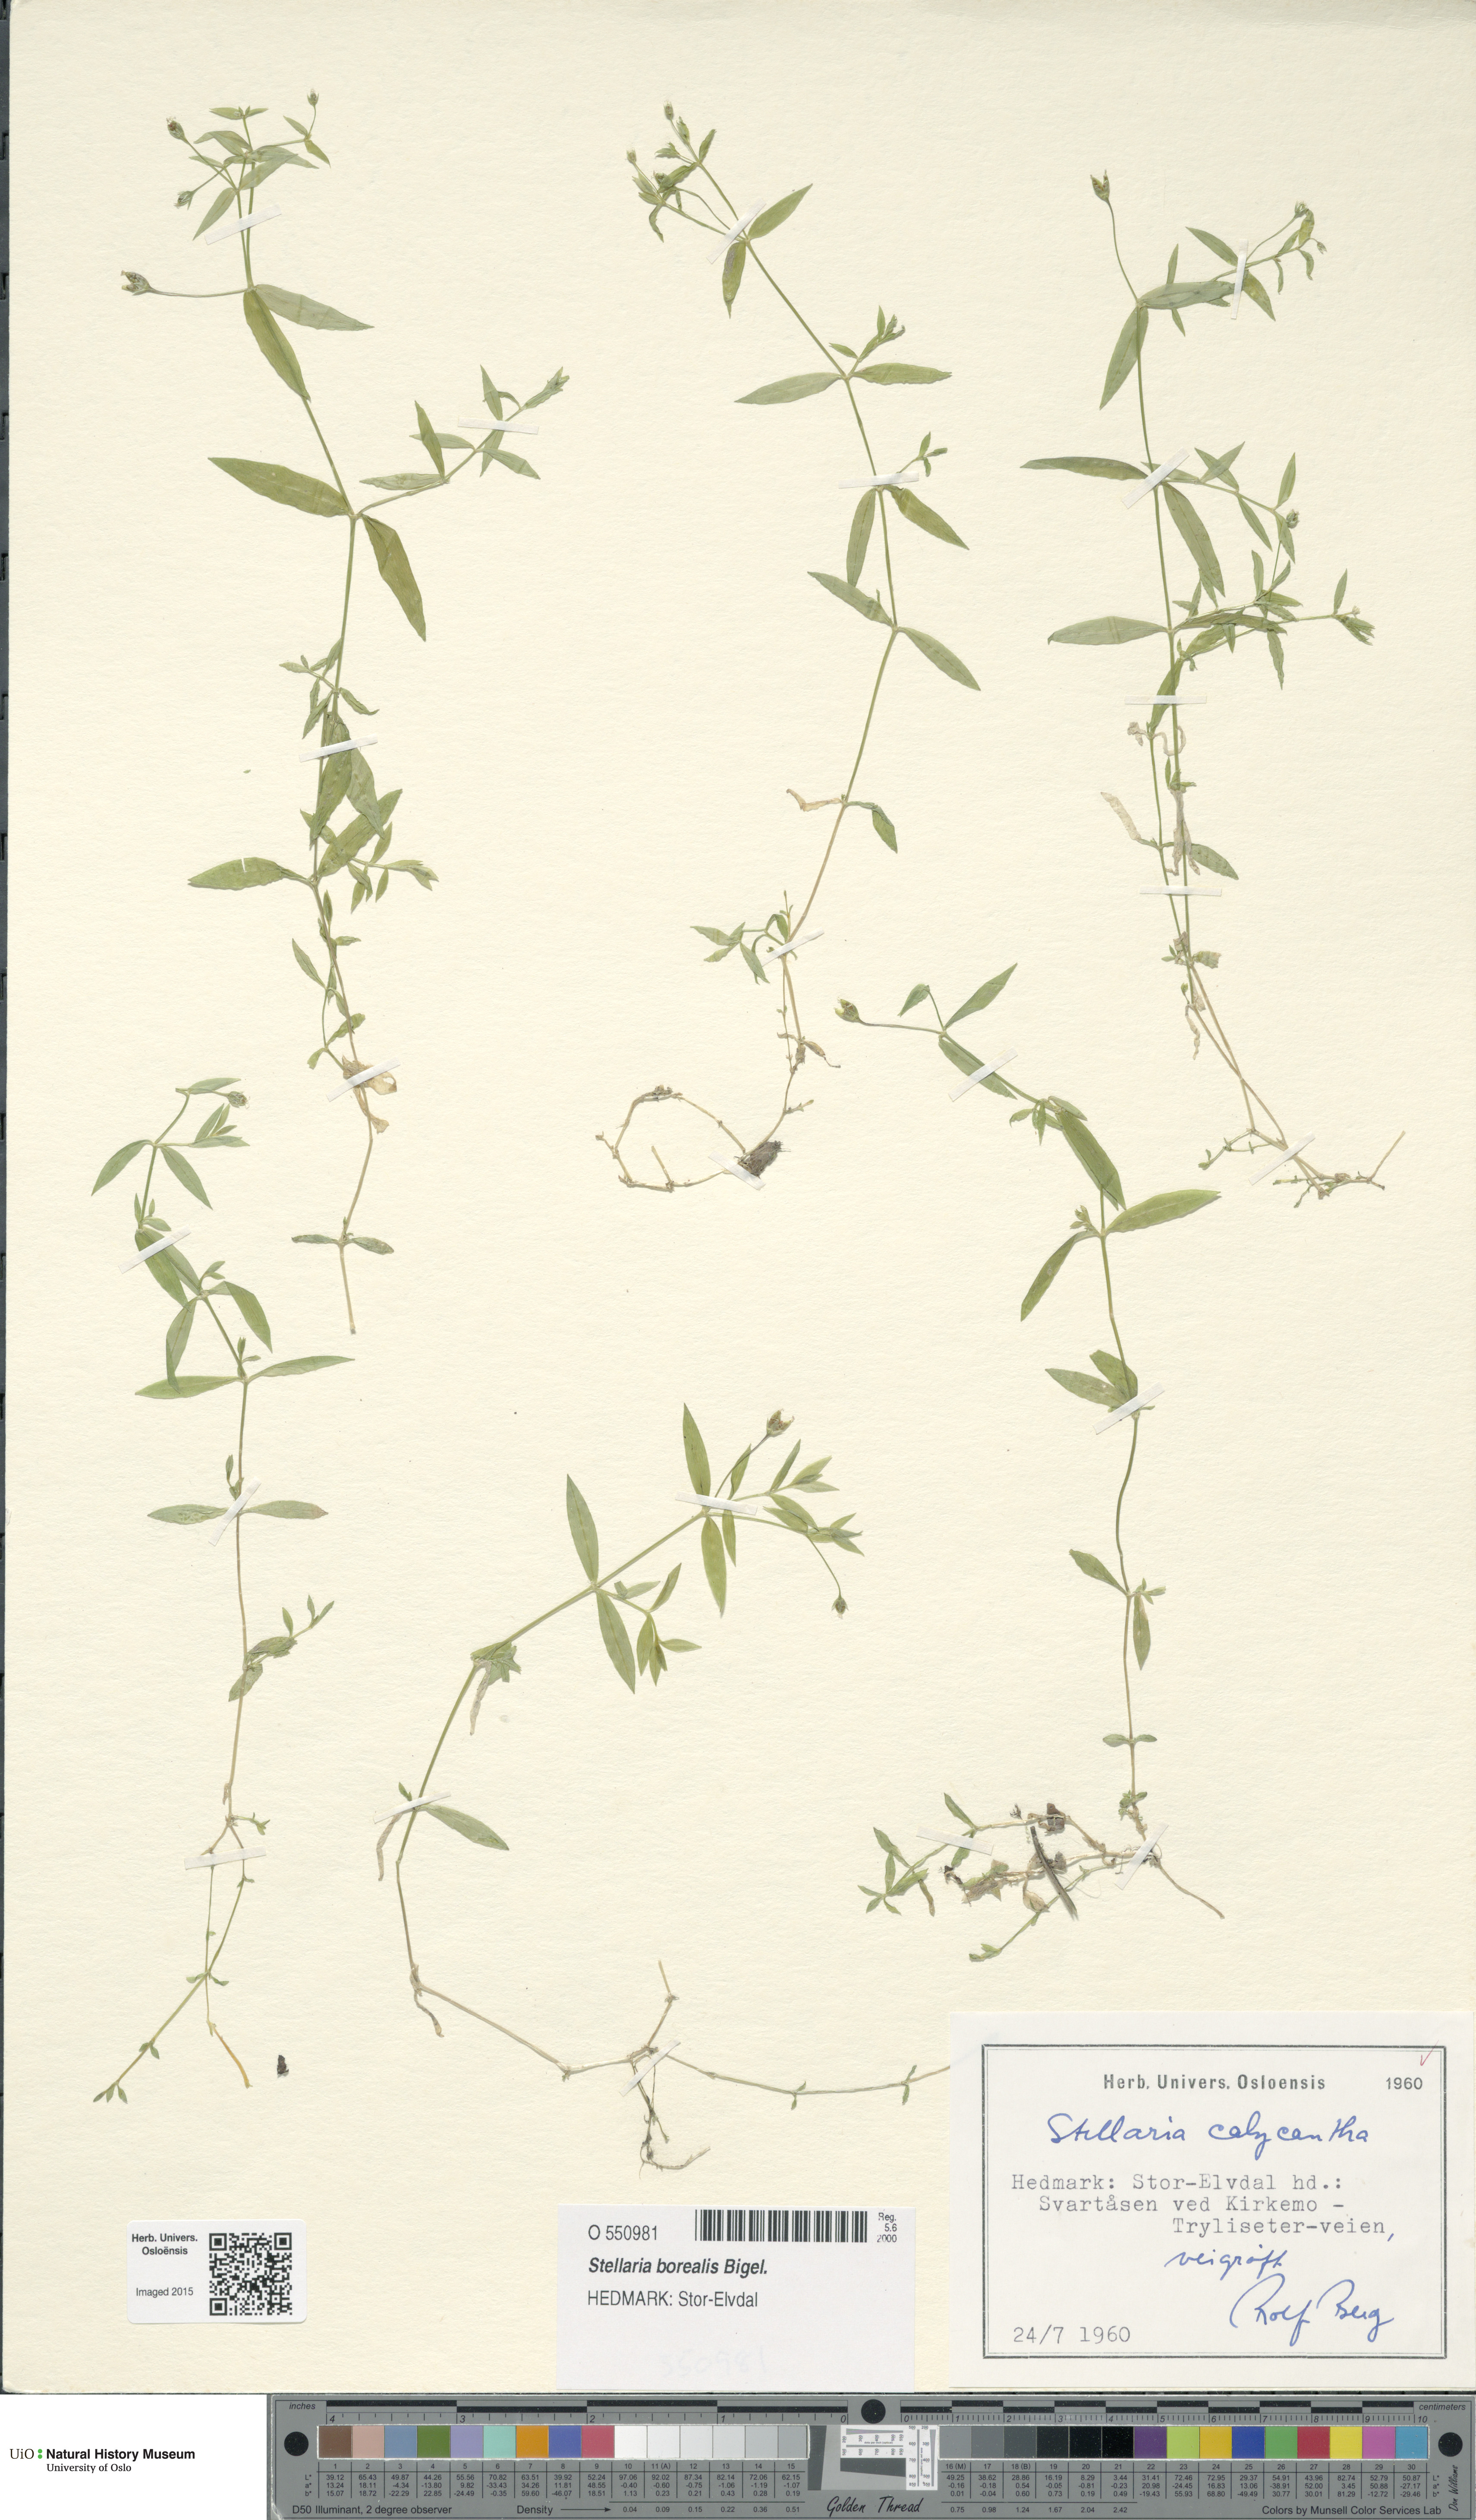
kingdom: Plantae
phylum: Tracheophyta
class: Magnoliopsida
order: Caryophyllales
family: Caryophyllaceae
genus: Stellaria
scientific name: Stellaria borealis
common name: Boreal starwort
